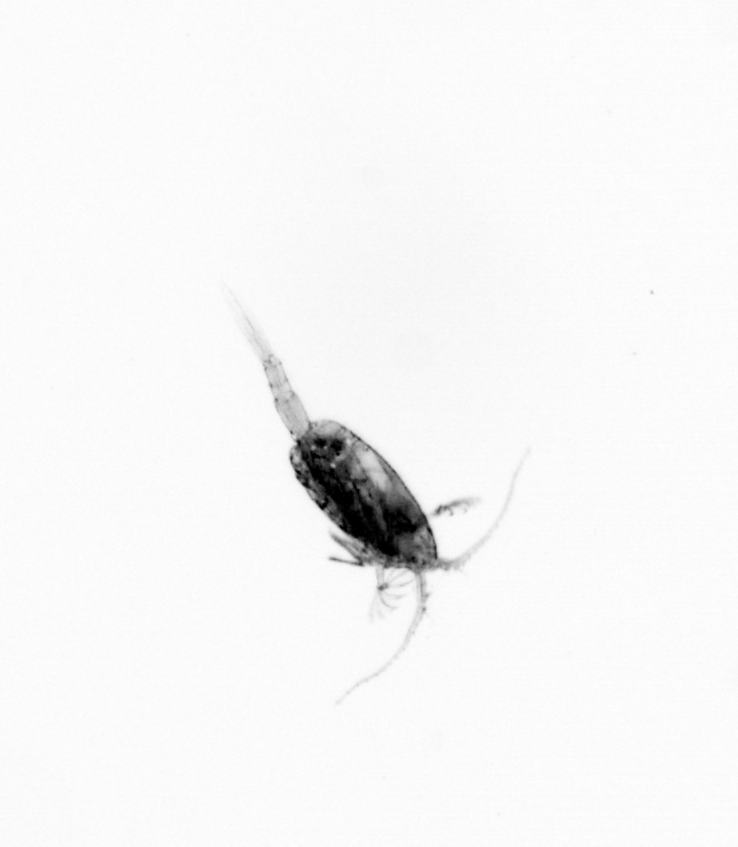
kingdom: Animalia
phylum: Arthropoda
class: Copepoda
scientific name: Copepoda
